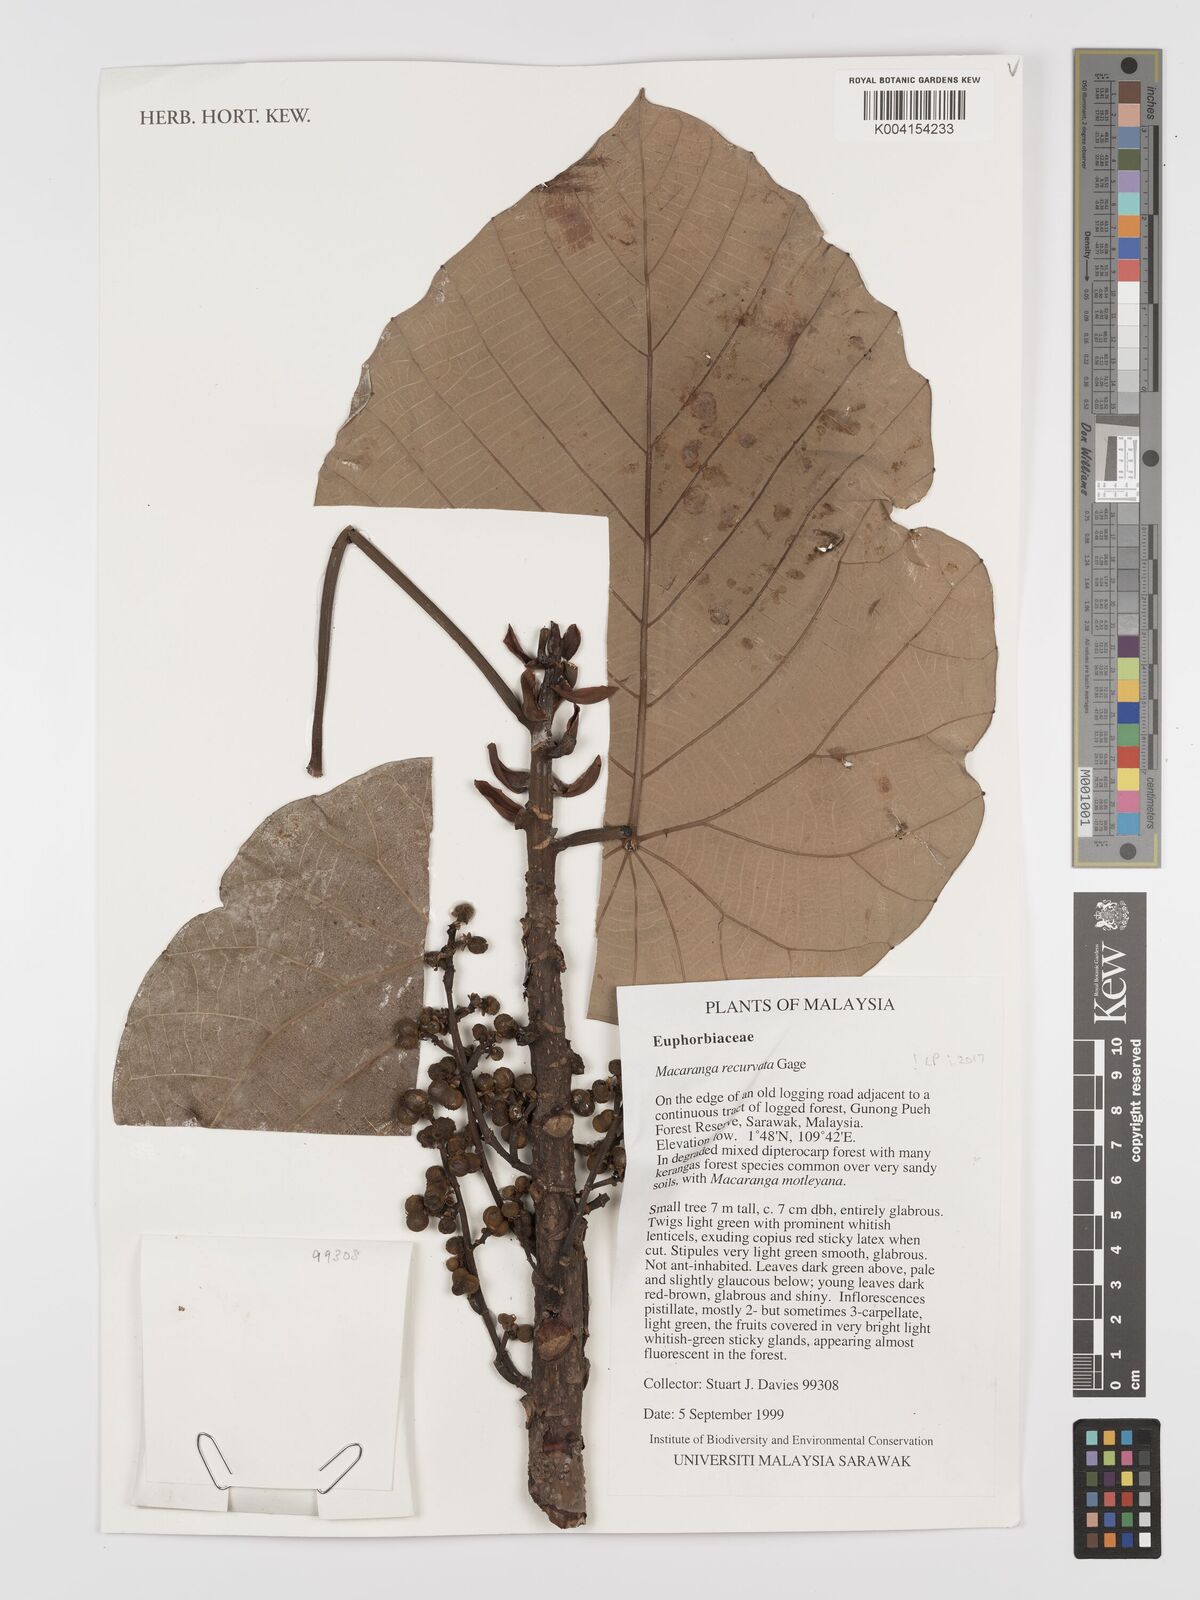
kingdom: Plantae
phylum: Tracheophyta
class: Magnoliopsida
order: Malpighiales
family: Euphorbiaceae
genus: Macaranga
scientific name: Macaranga recurvata
